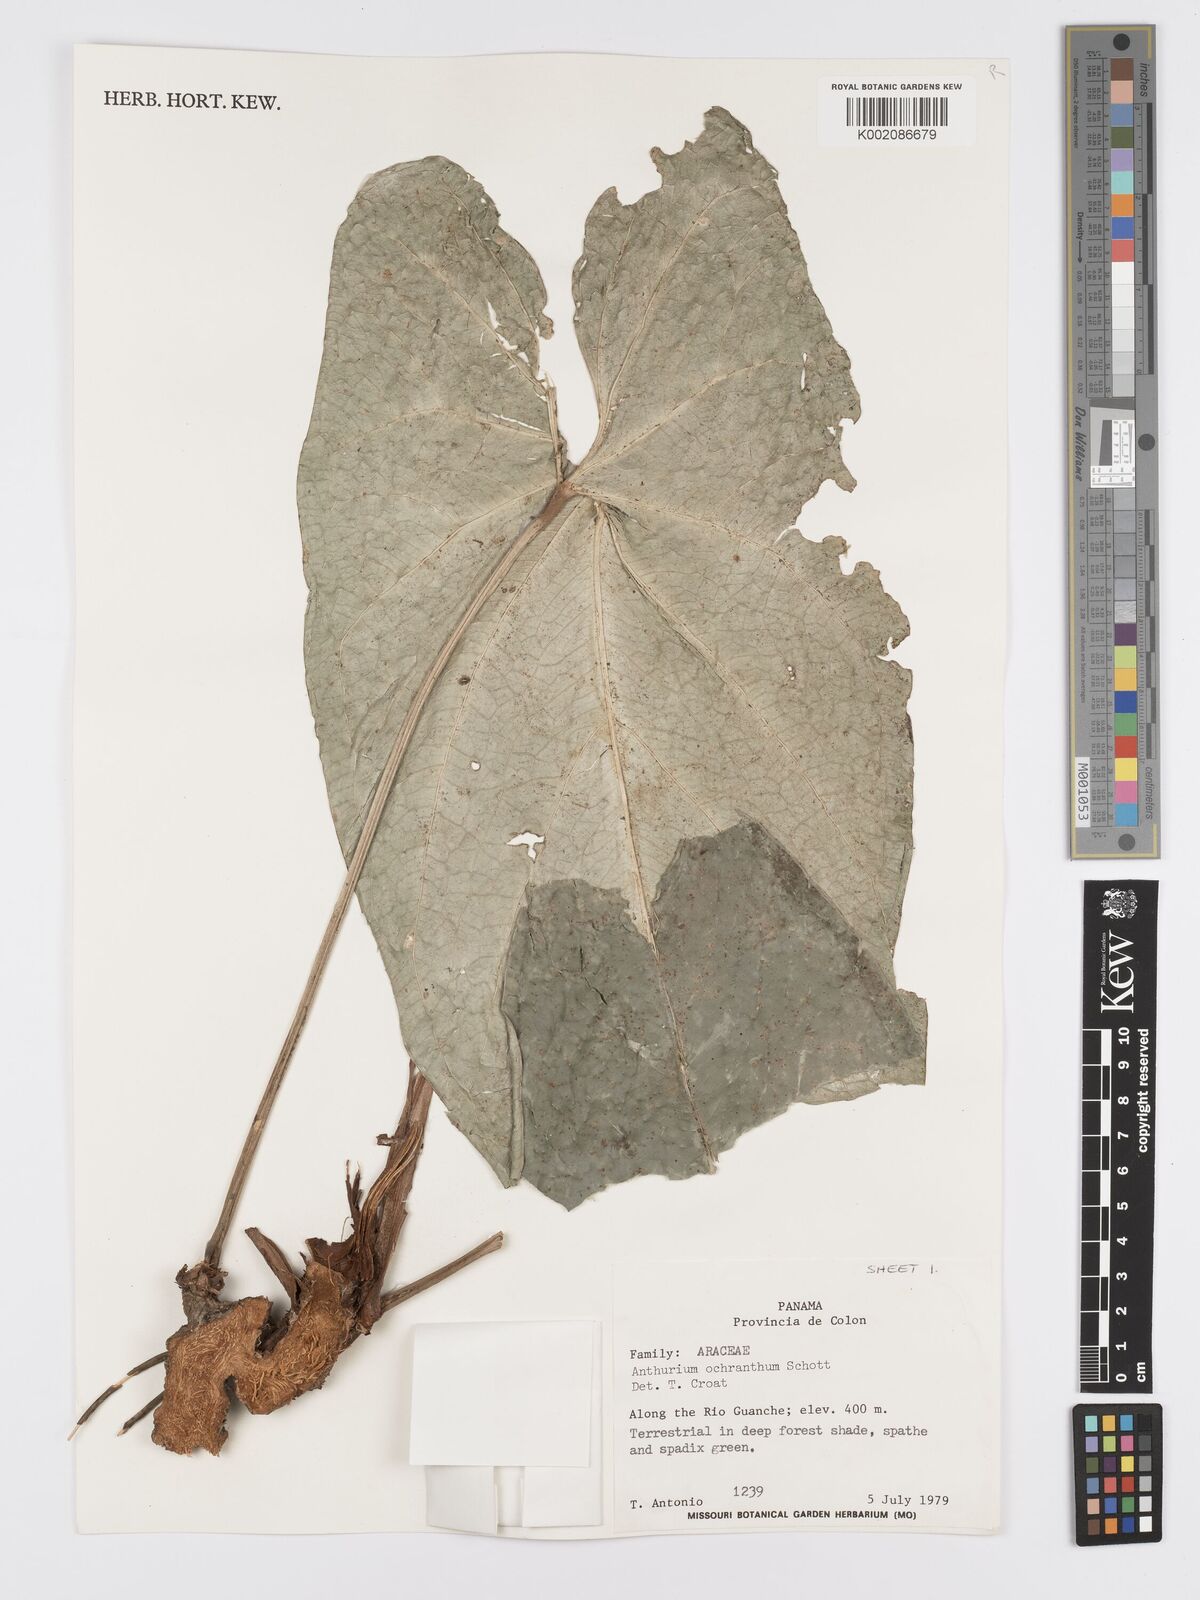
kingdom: Plantae
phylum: Tracheophyta
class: Liliopsida
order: Alismatales
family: Araceae
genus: Anthurium
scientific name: Anthurium ochranthum
